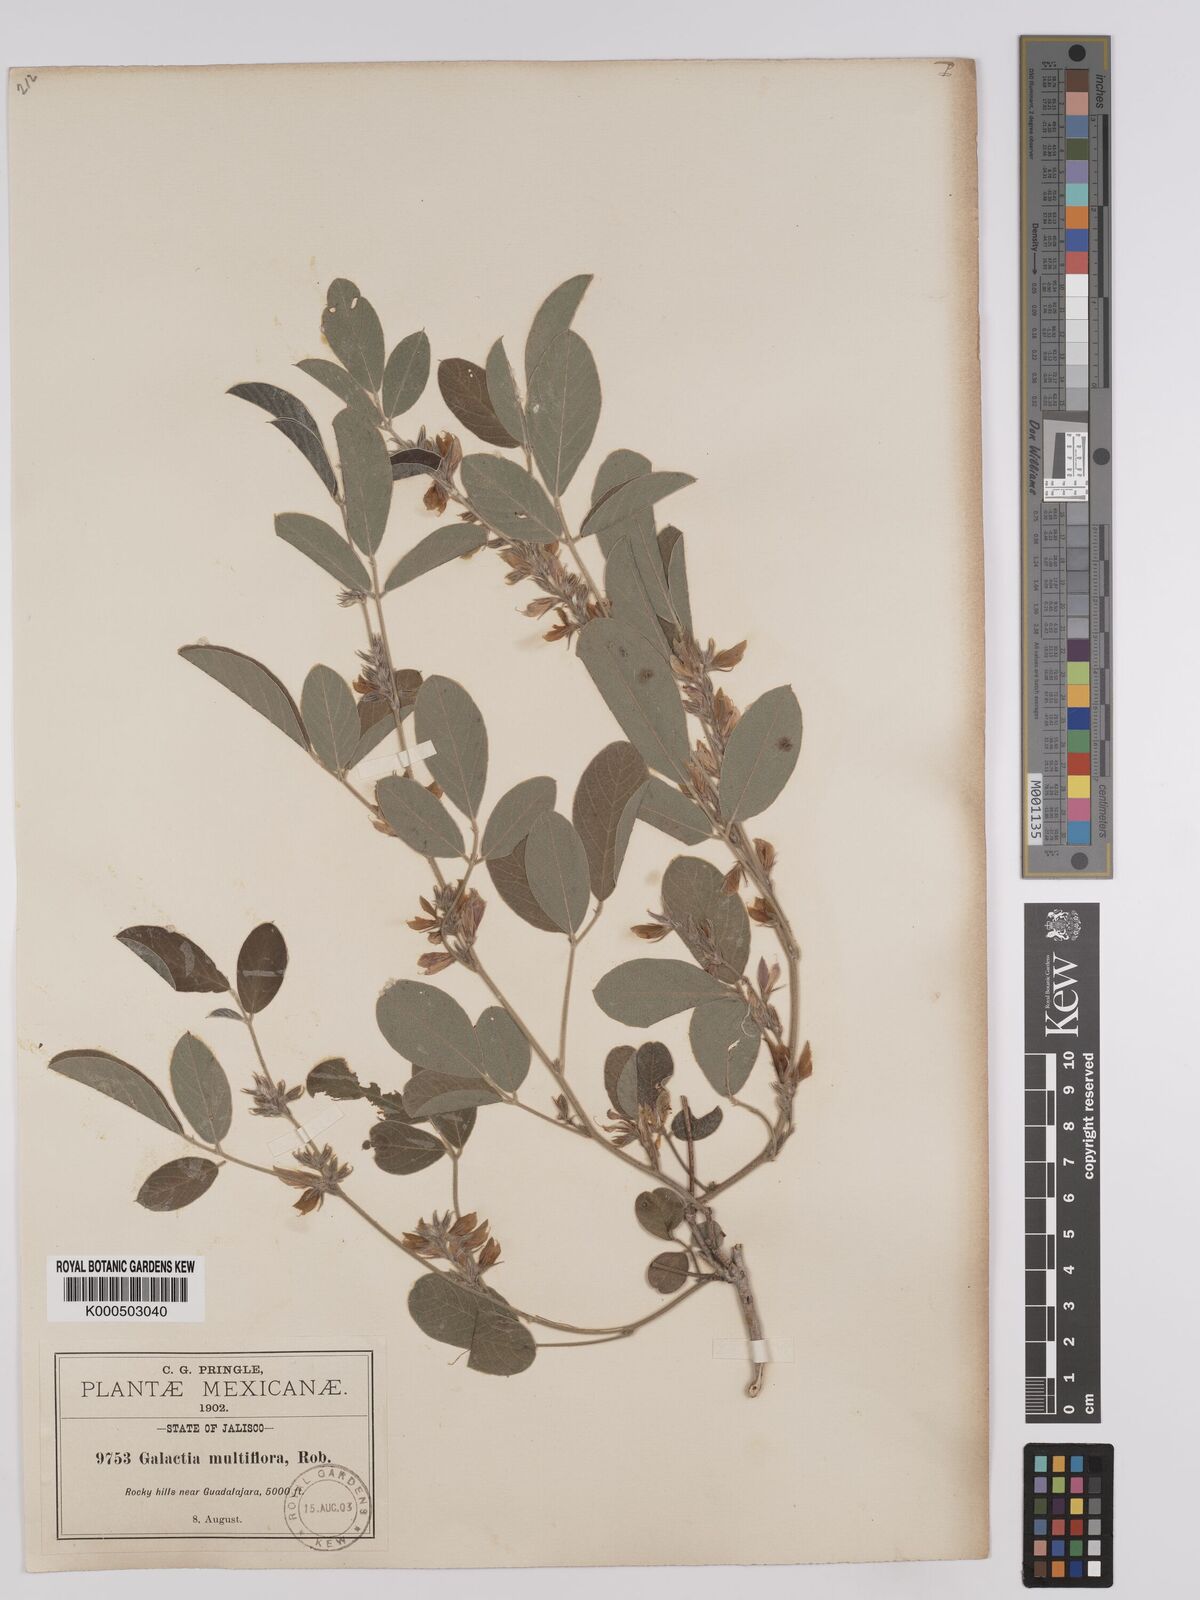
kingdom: Plantae
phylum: Tracheophyta
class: Magnoliopsida
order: Fabales
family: Fabaceae
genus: Galactia
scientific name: Galactia multiflora
